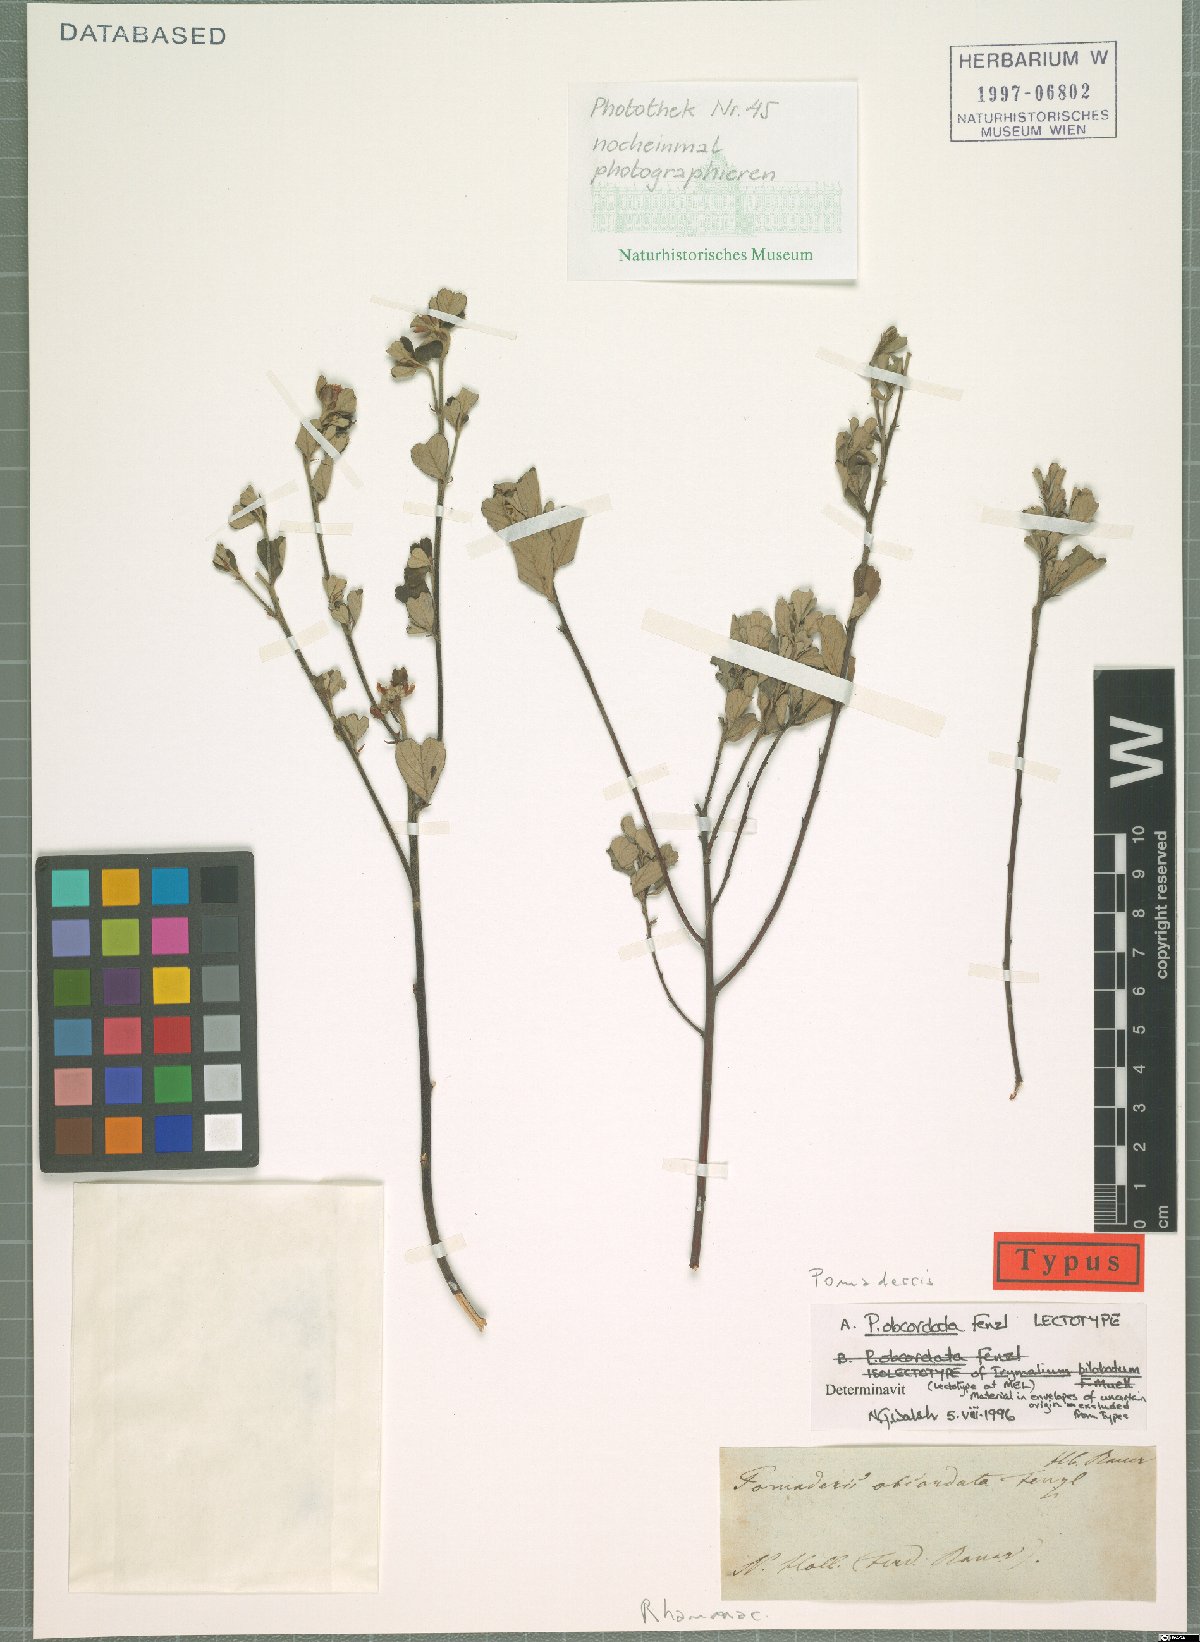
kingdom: Plantae
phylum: Tracheophyta
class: Magnoliopsida
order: Rosales
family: Rhamnaceae
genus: Pomaderris
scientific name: Pomaderris obcordata
